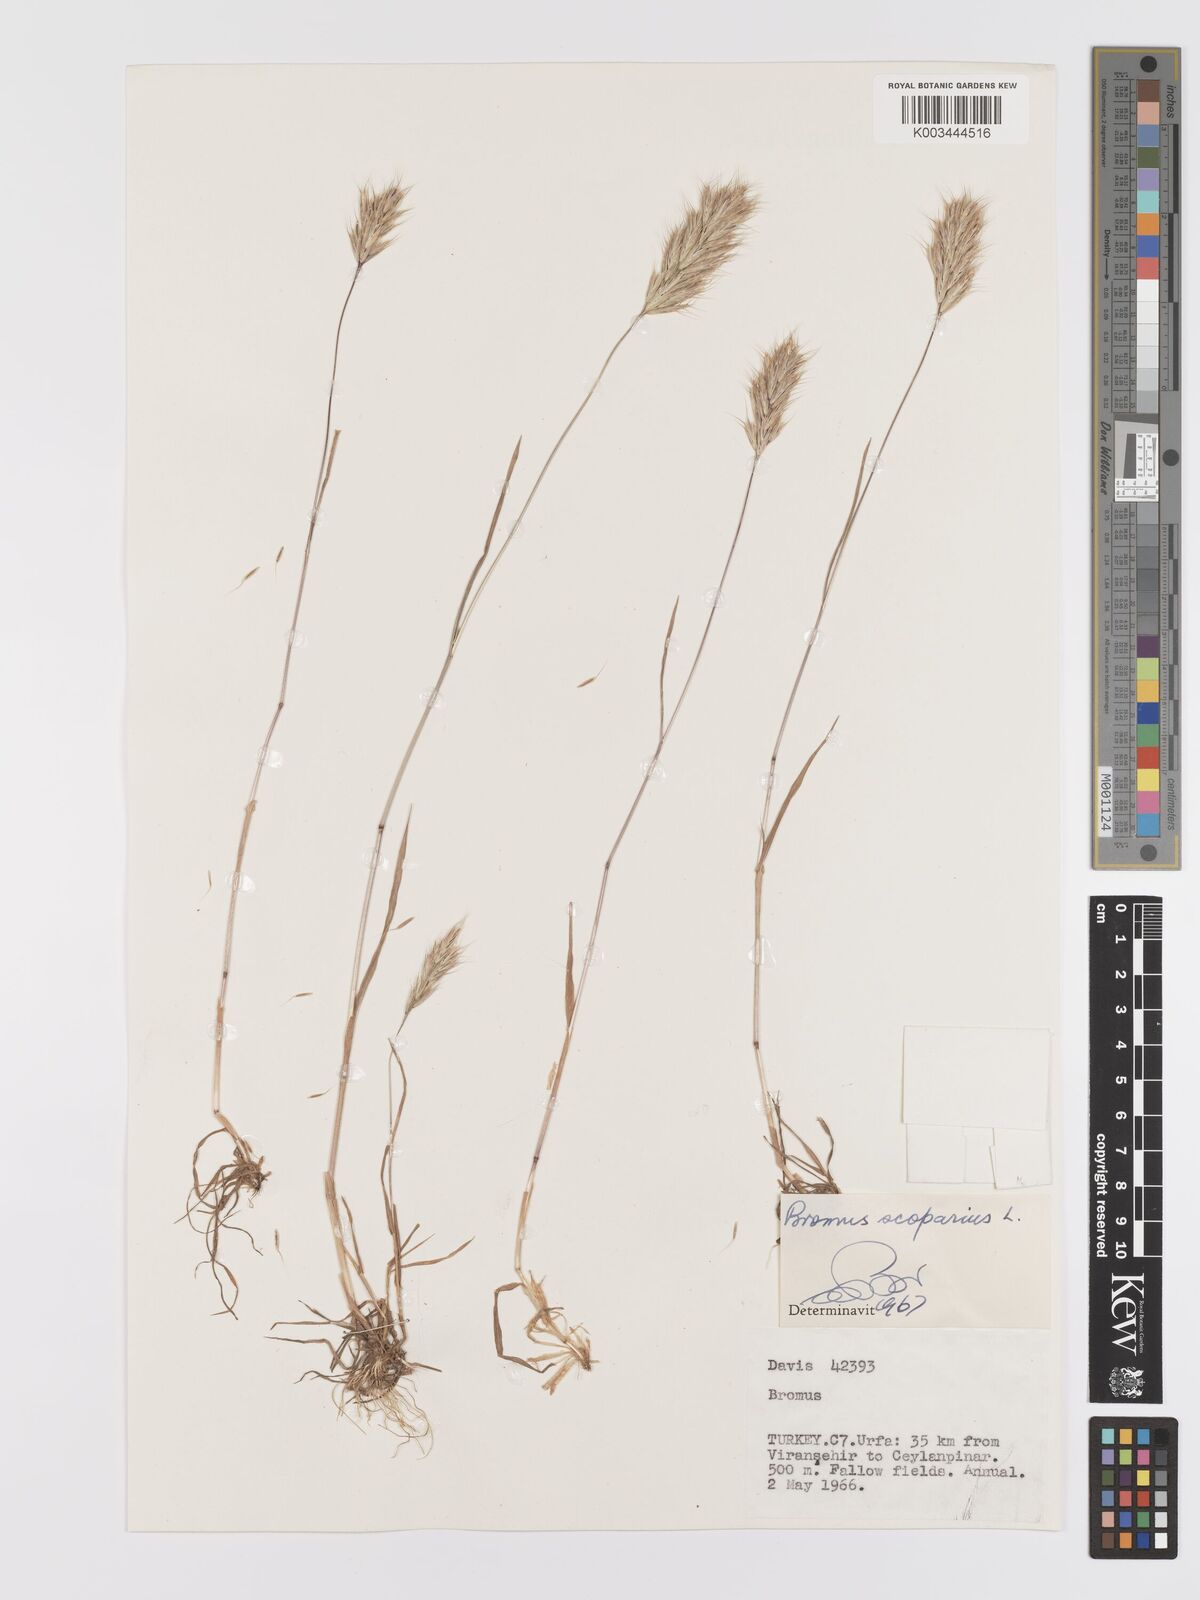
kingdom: Plantae
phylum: Tracheophyta
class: Liliopsida
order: Poales
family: Poaceae
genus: Bromus
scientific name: Bromus scoparius
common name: Broom brome
